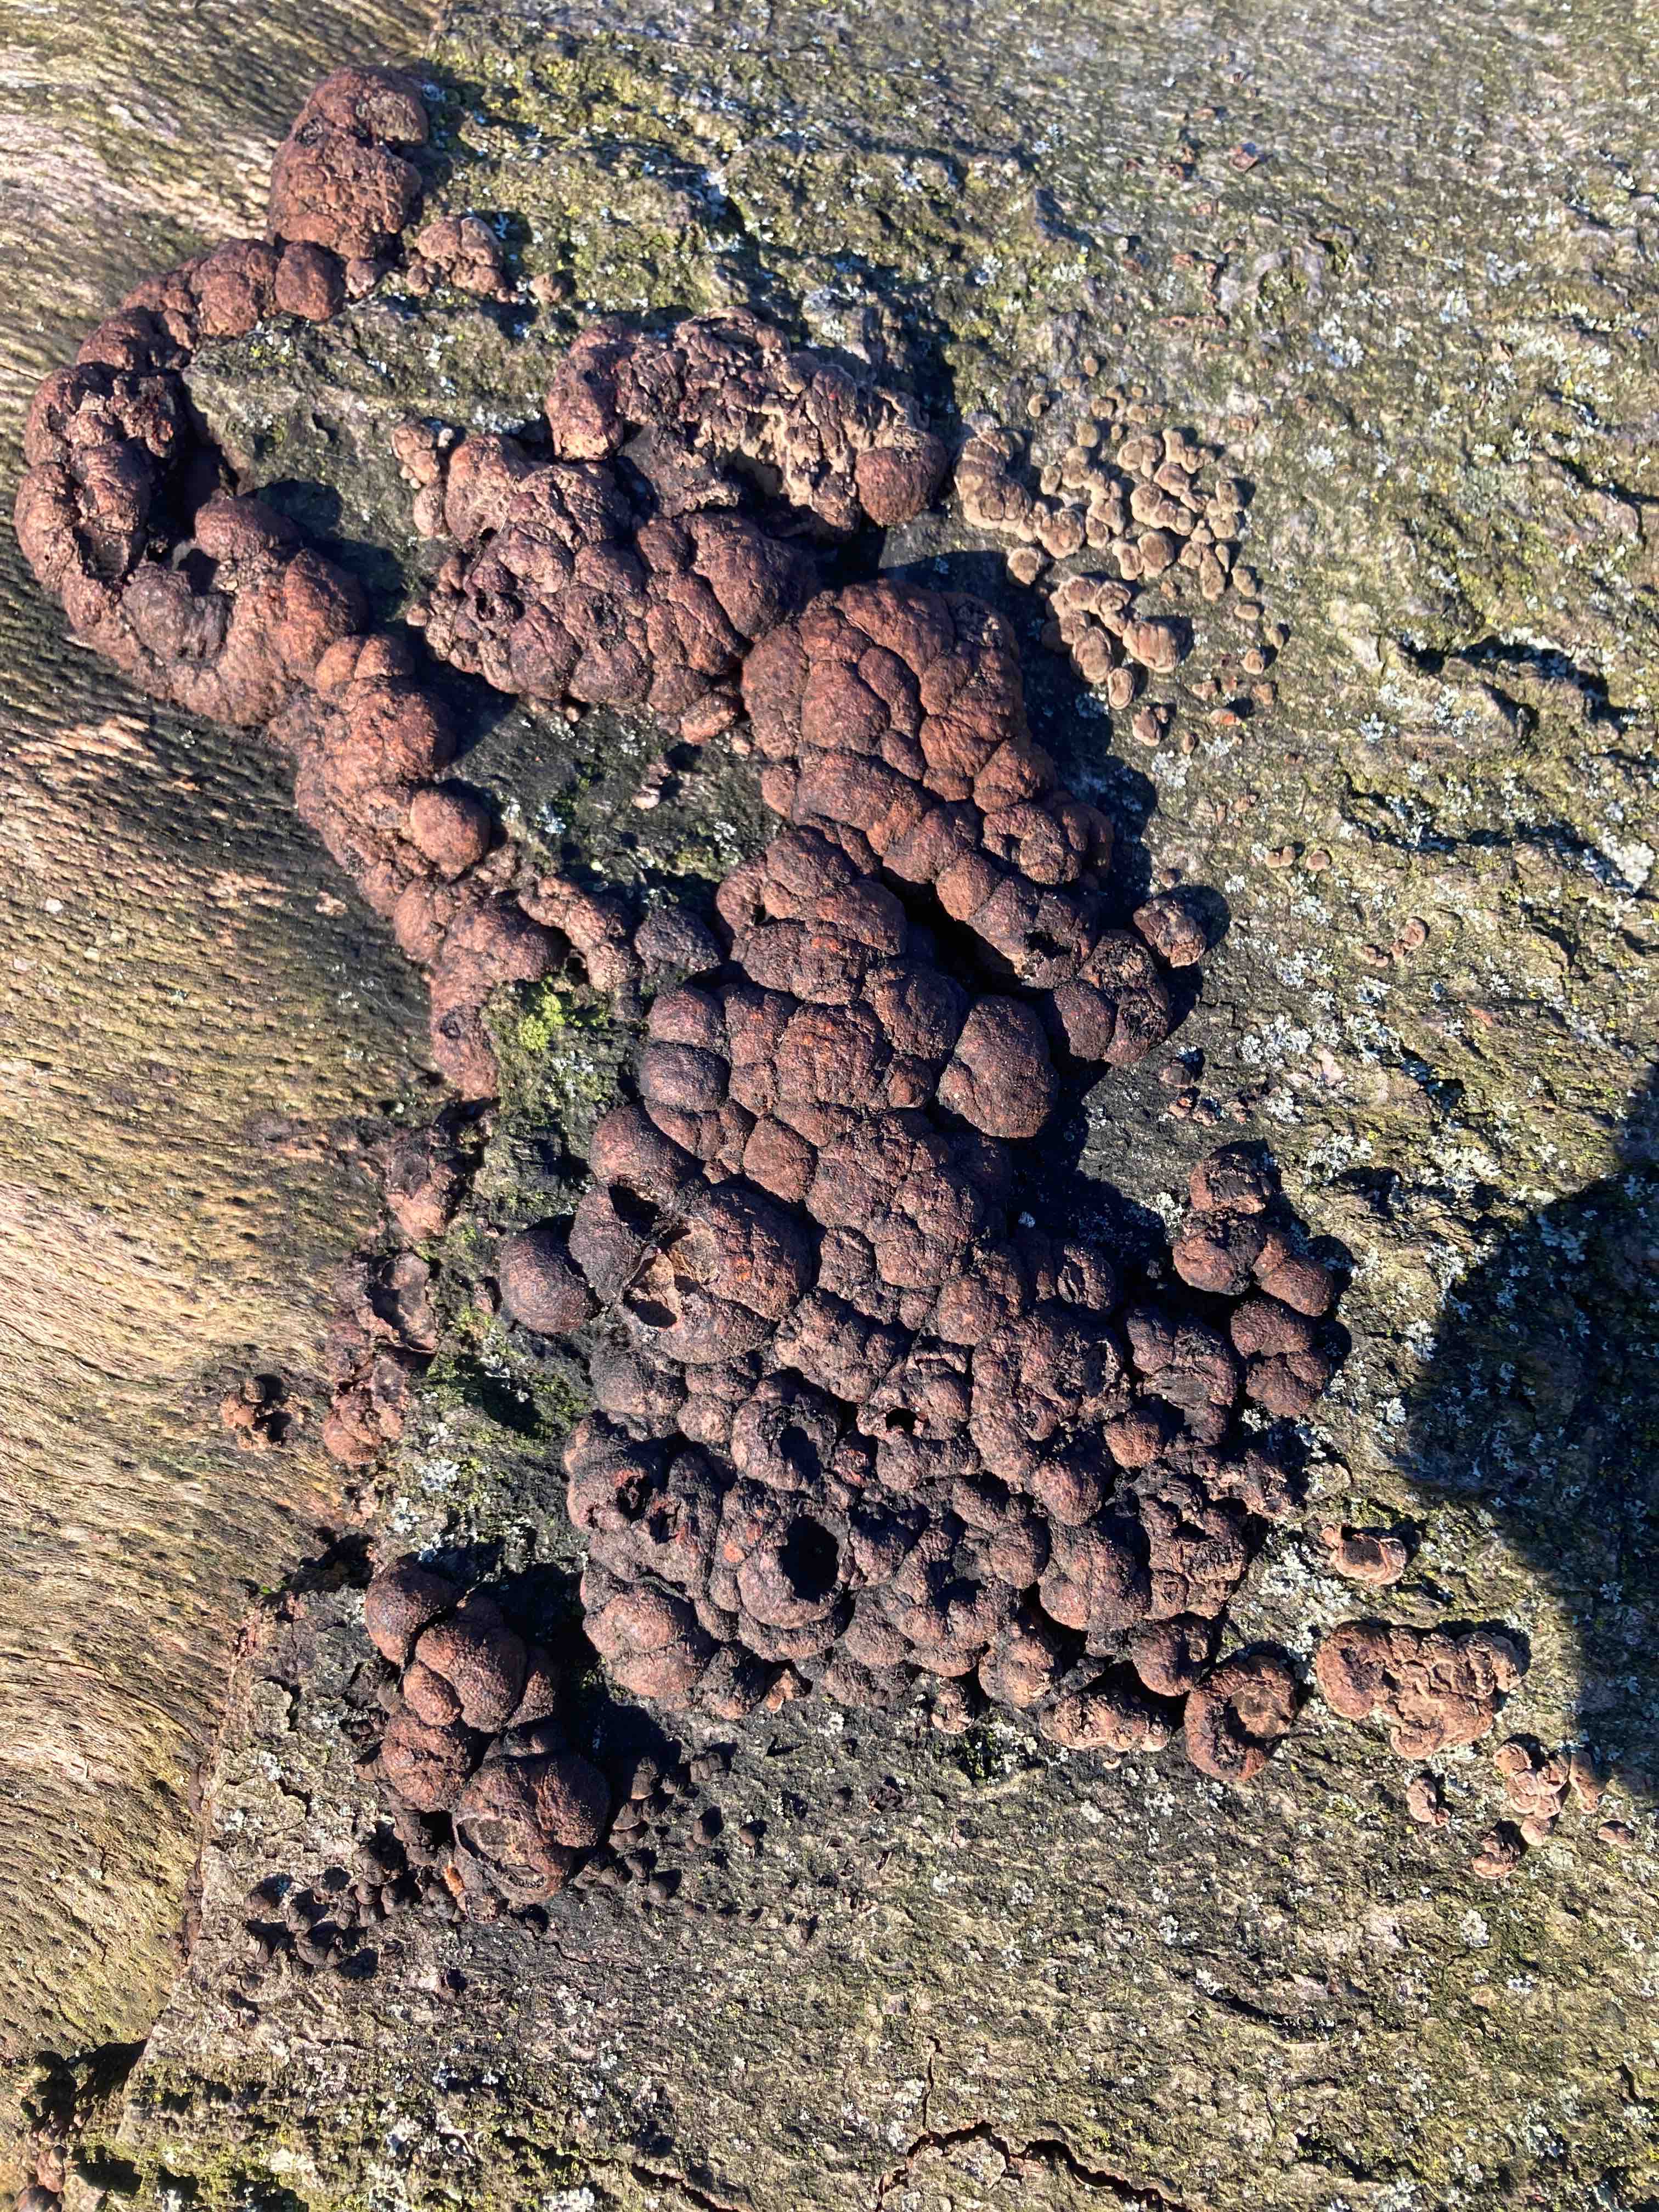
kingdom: Fungi
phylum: Ascomycota
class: Sordariomycetes
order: Xylariales
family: Hypoxylaceae
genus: Hypoxylon
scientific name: Hypoxylon fragiforme
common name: kuljordbær
